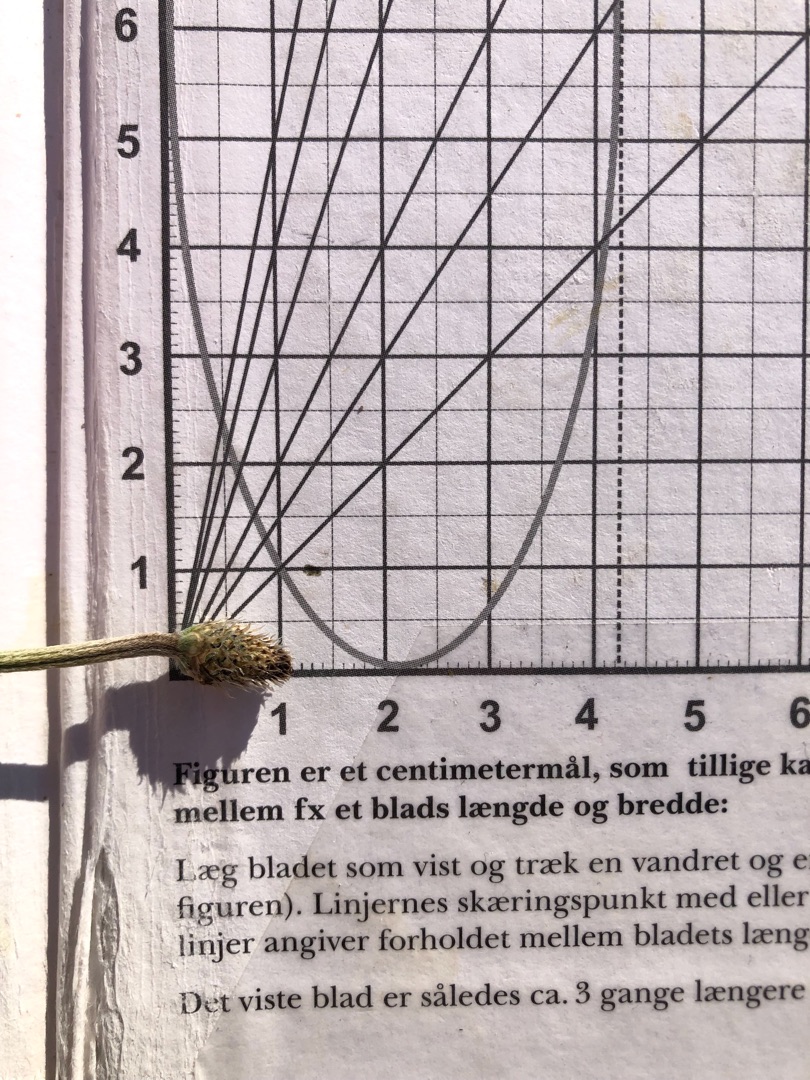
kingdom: Plantae
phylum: Tracheophyta
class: Magnoliopsida
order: Lamiales
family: Plantaginaceae
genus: Plantago
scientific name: Plantago lanceolata
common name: Lancet-vejbred
